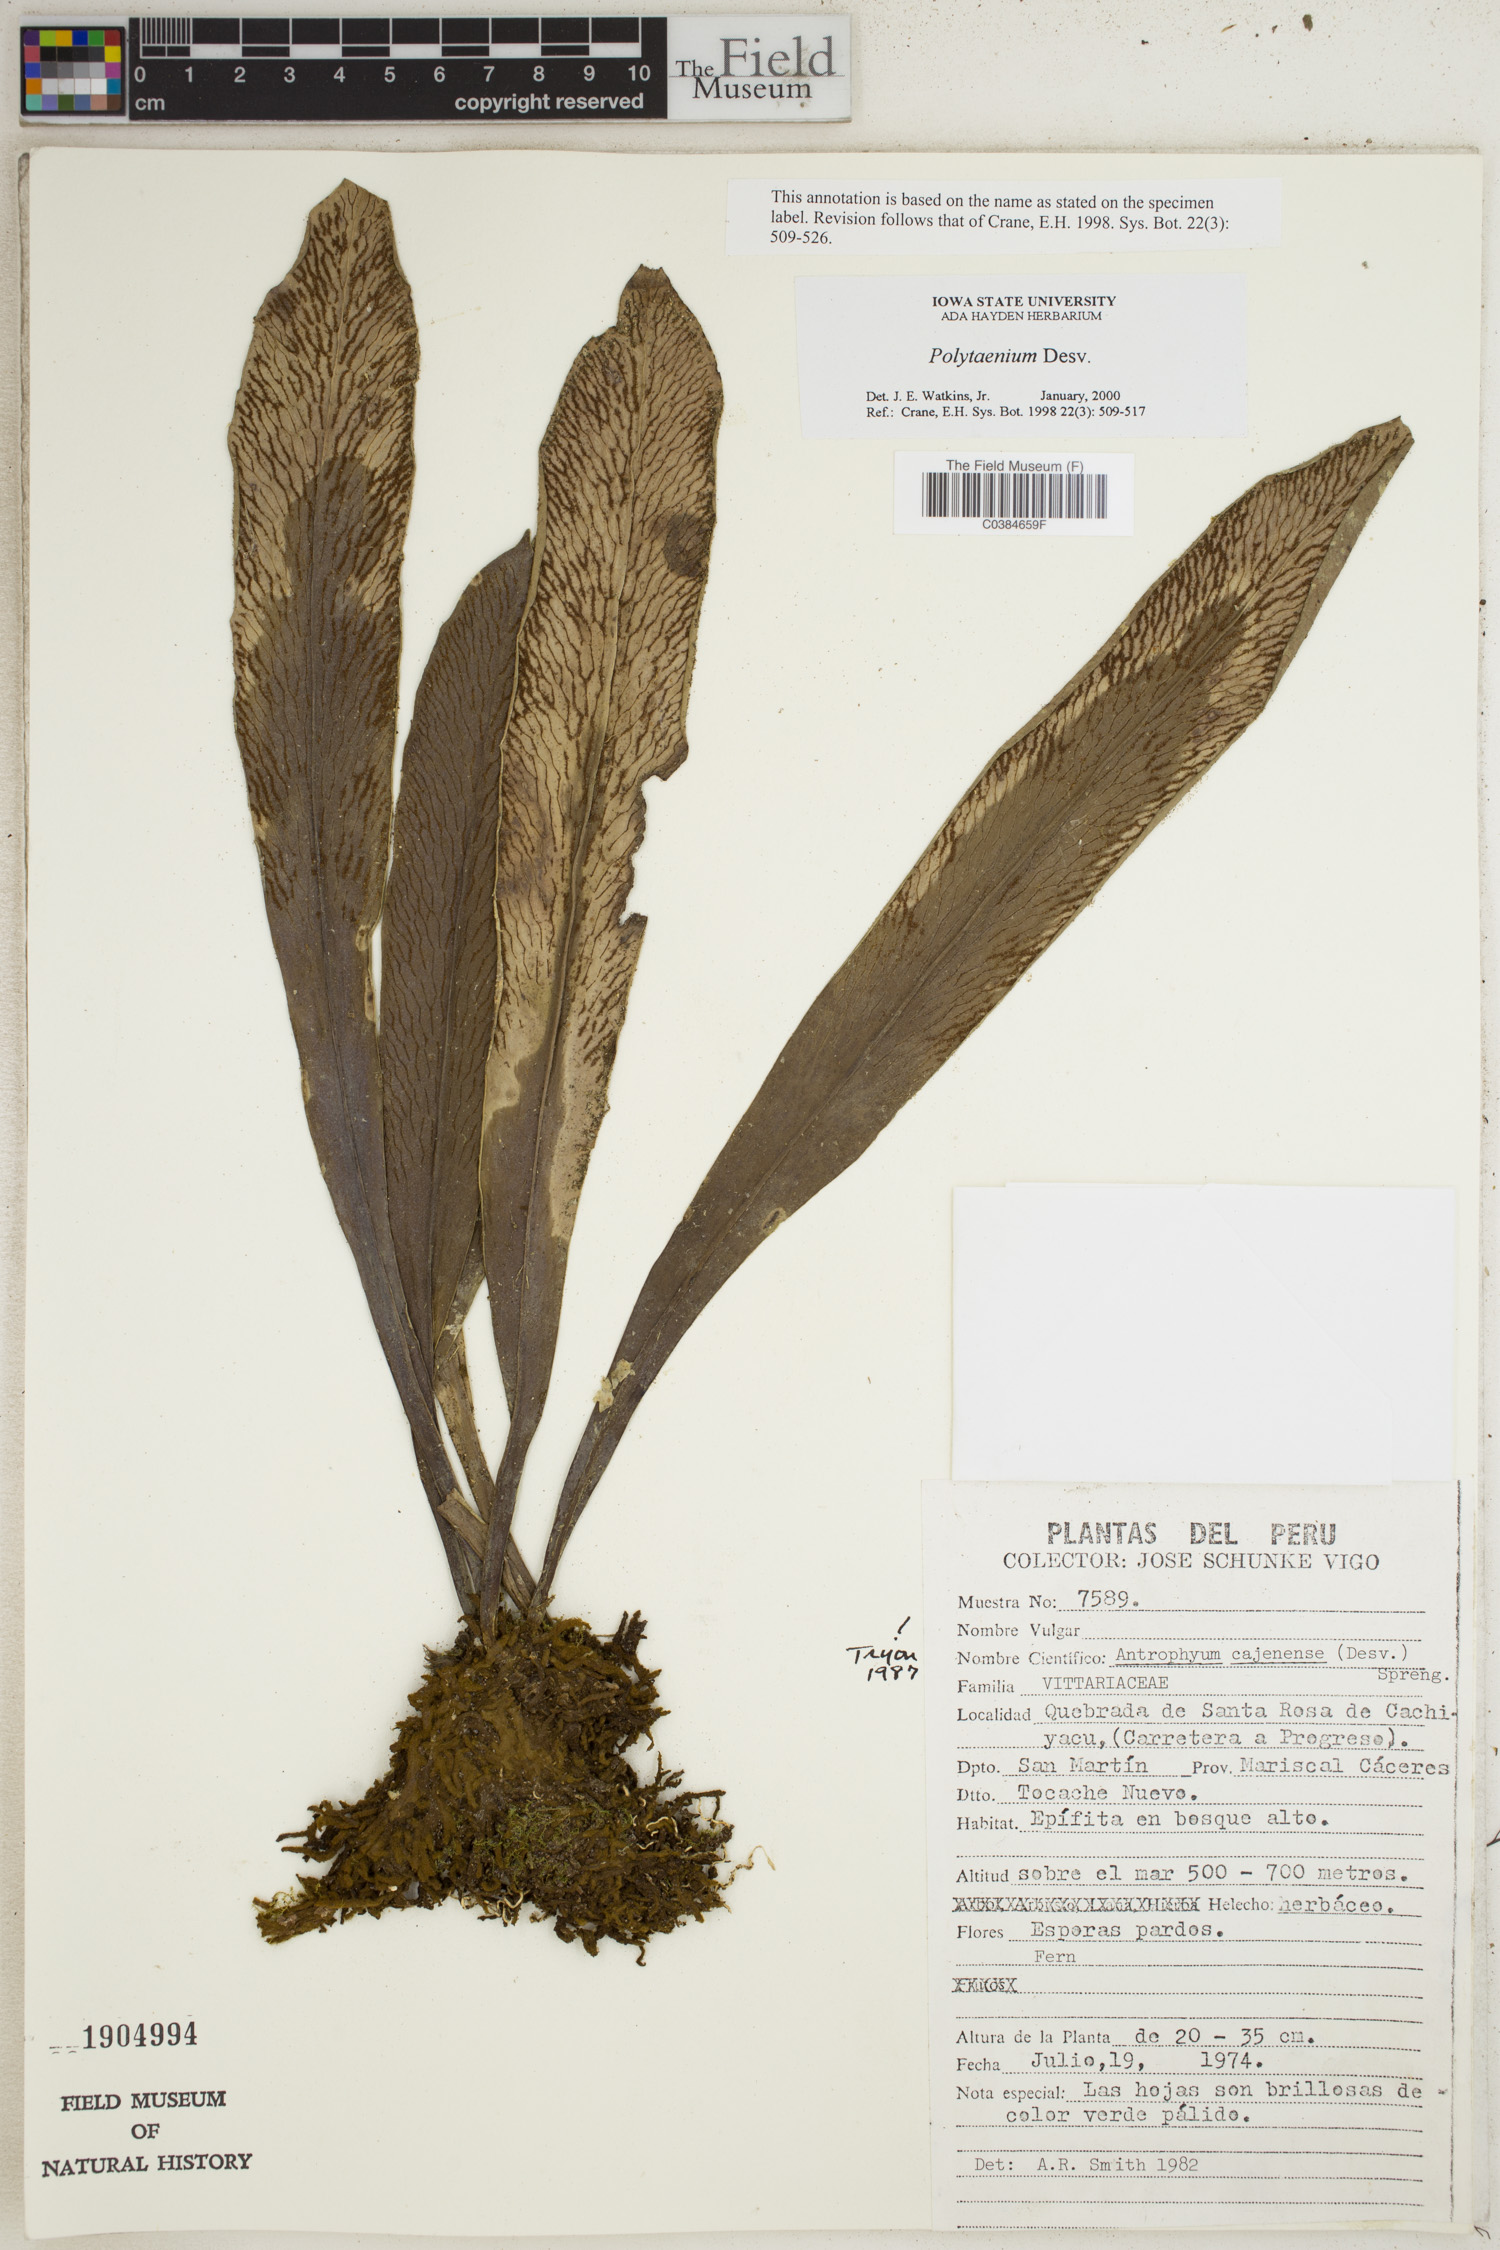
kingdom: Plantae
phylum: Tracheophyta
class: Polypodiopsida
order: Polypodiales
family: Pteridaceae
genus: Polytaenium
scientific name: Polytaenium
